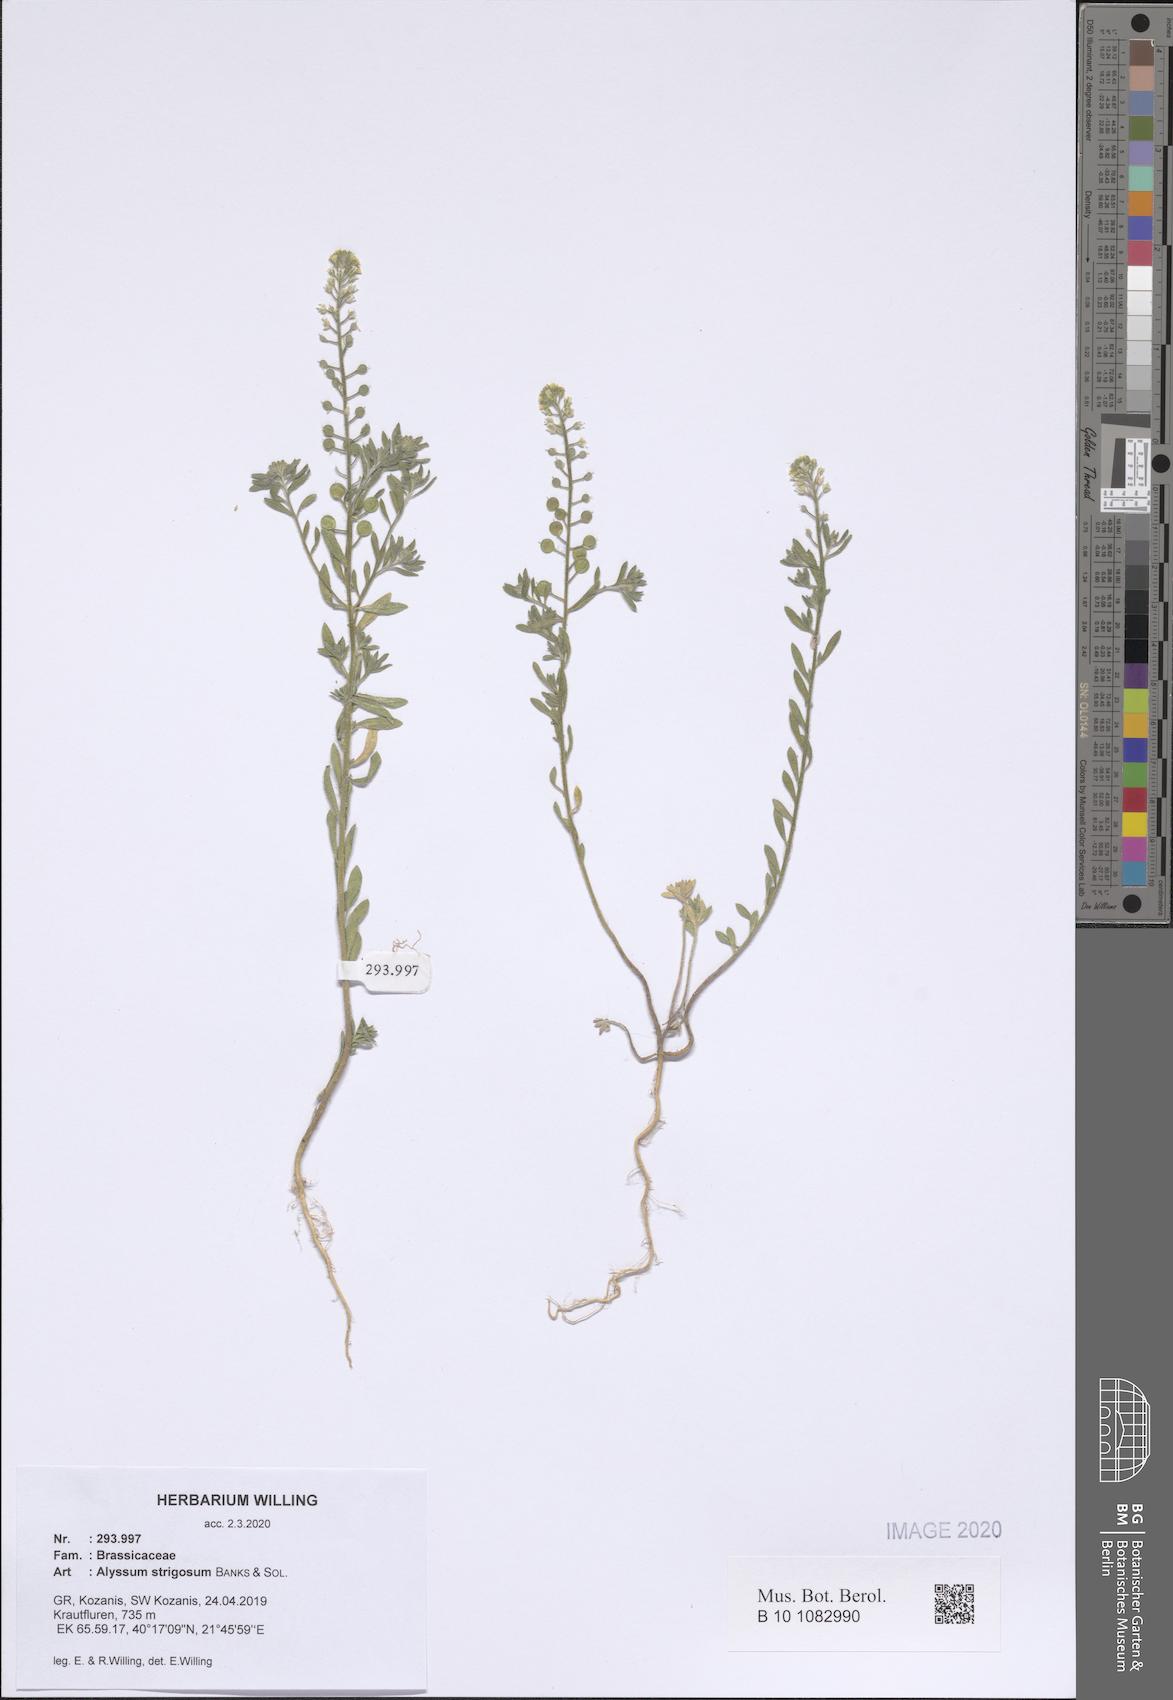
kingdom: Plantae
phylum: Tracheophyta
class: Magnoliopsida
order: Brassicales
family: Brassicaceae
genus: Alyssum
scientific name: Alyssum strigosum
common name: Alyssum
